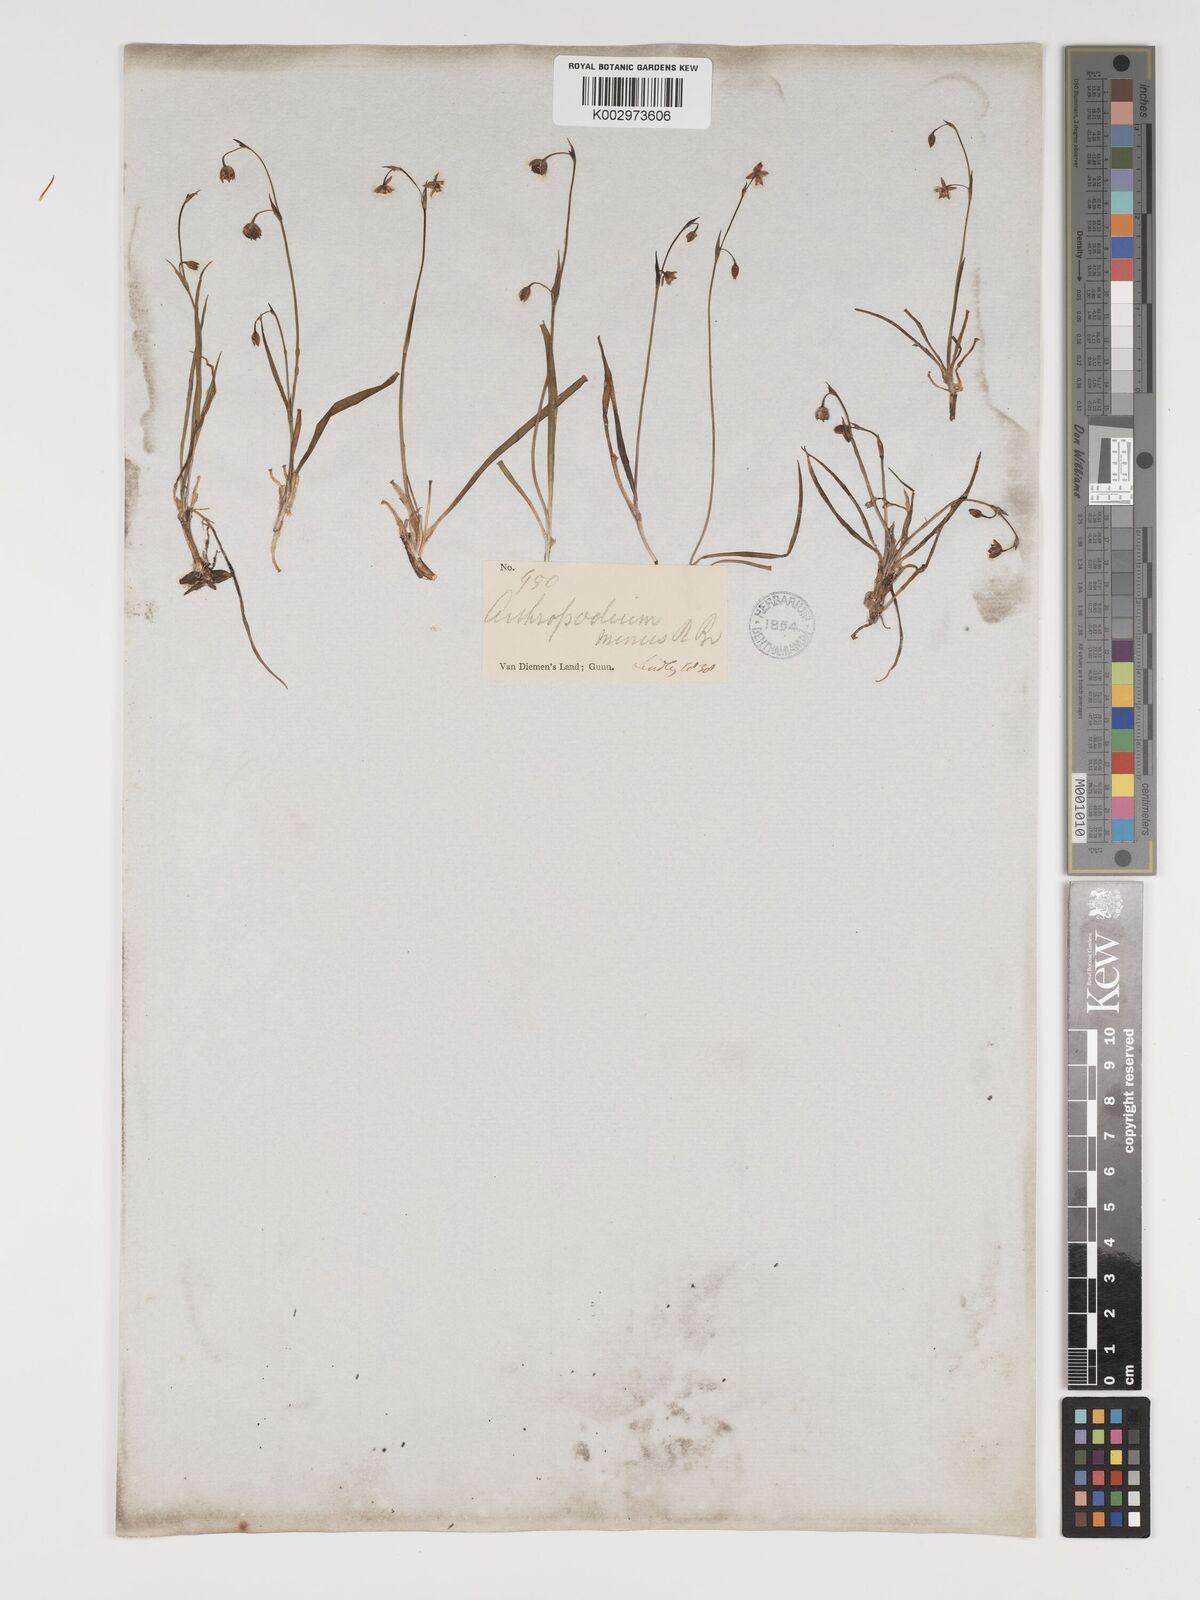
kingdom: Plantae
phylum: Tracheophyta
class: Liliopsida
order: Asparagales
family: Asparagaceae
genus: Arthropodium
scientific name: Arthropodium minus
